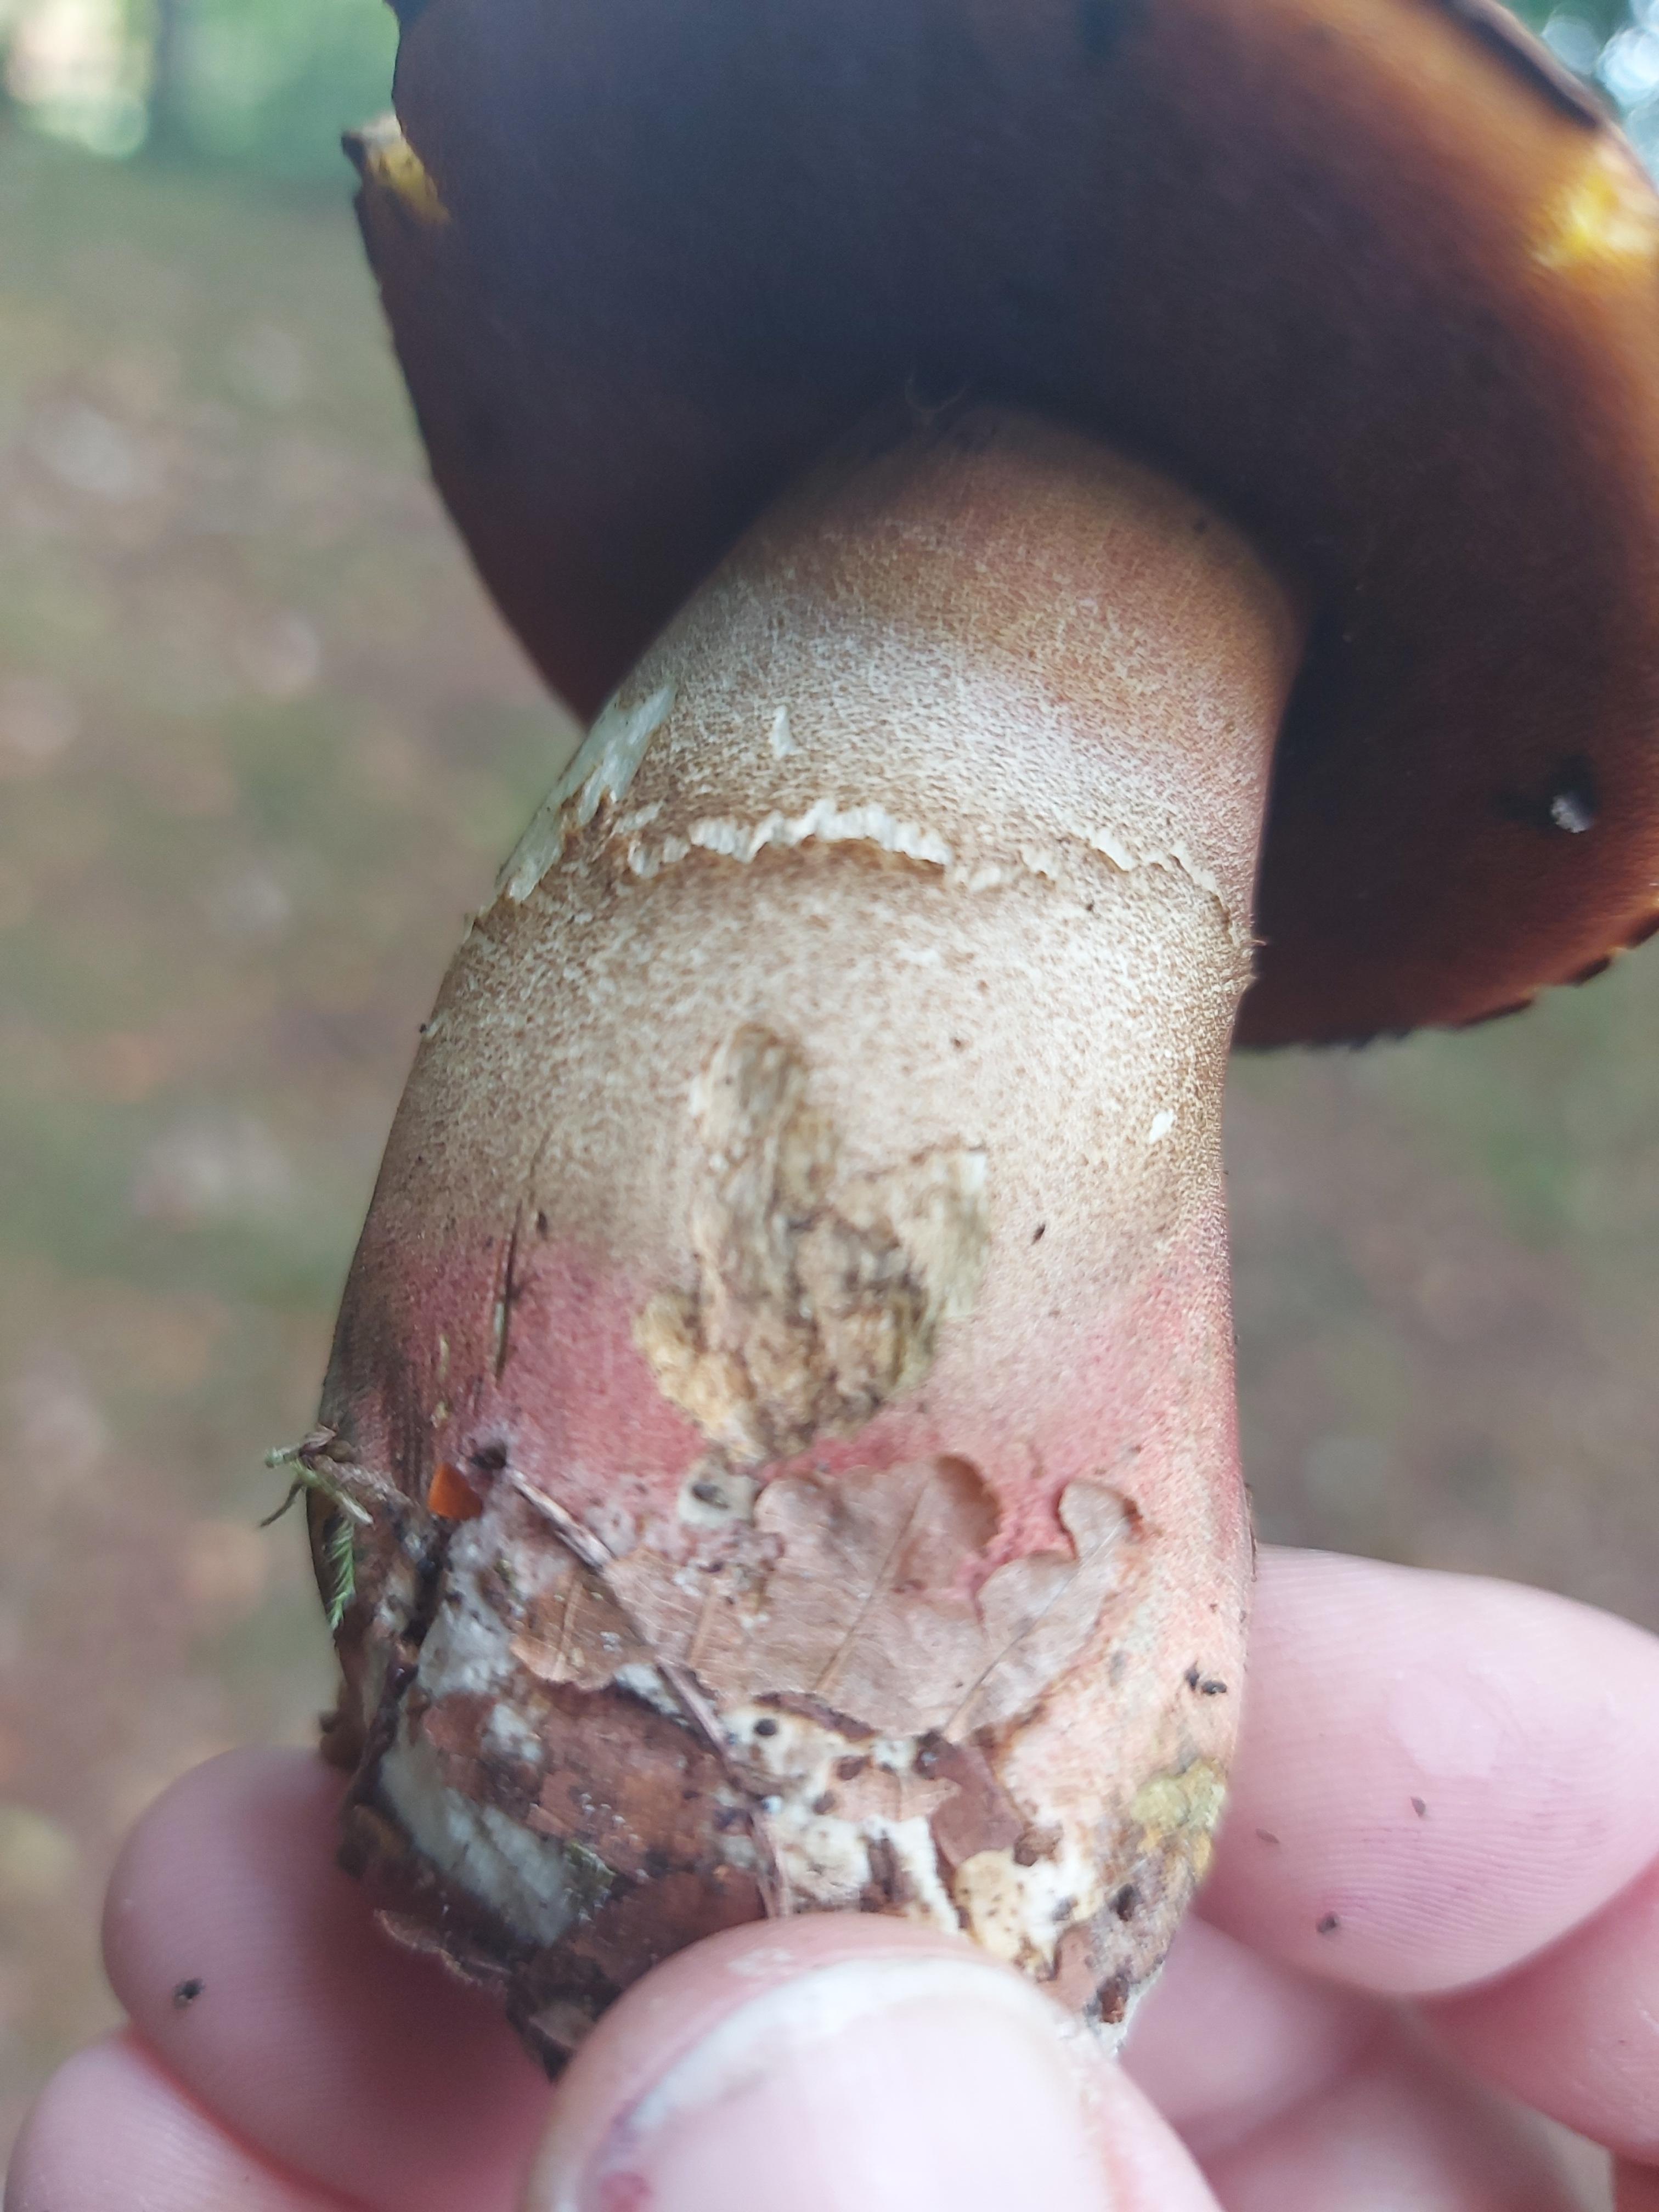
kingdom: Fungi
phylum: Basidiomycota
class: Agaricomycetes
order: Boletales
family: Boletaceae
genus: Neoboletus
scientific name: Neoboletus erythropus
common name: punktstokket indigorørhat
